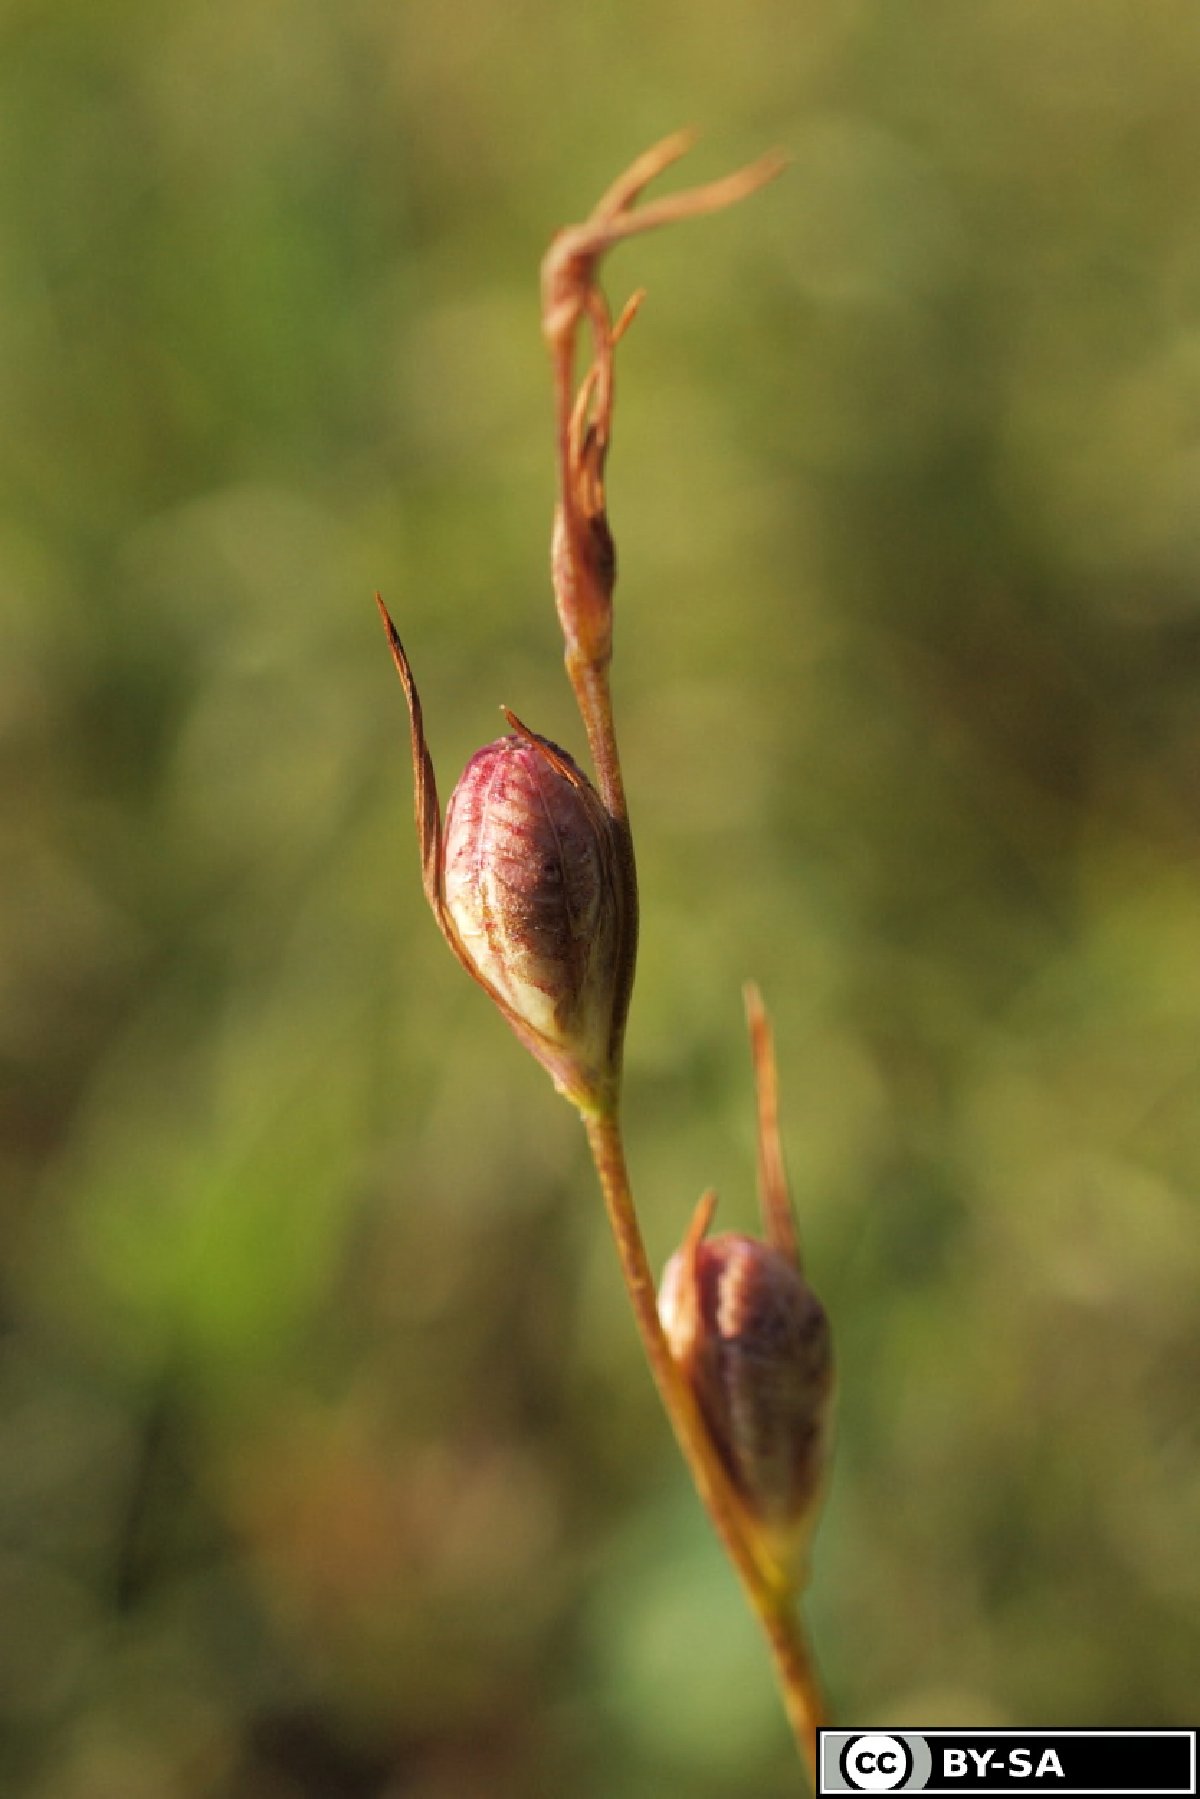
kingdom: Plantae
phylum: Tracheophyta
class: Liliopsida
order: Asparagales
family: Iridaceae
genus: Gladiolus
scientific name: Gladiolus palustris
